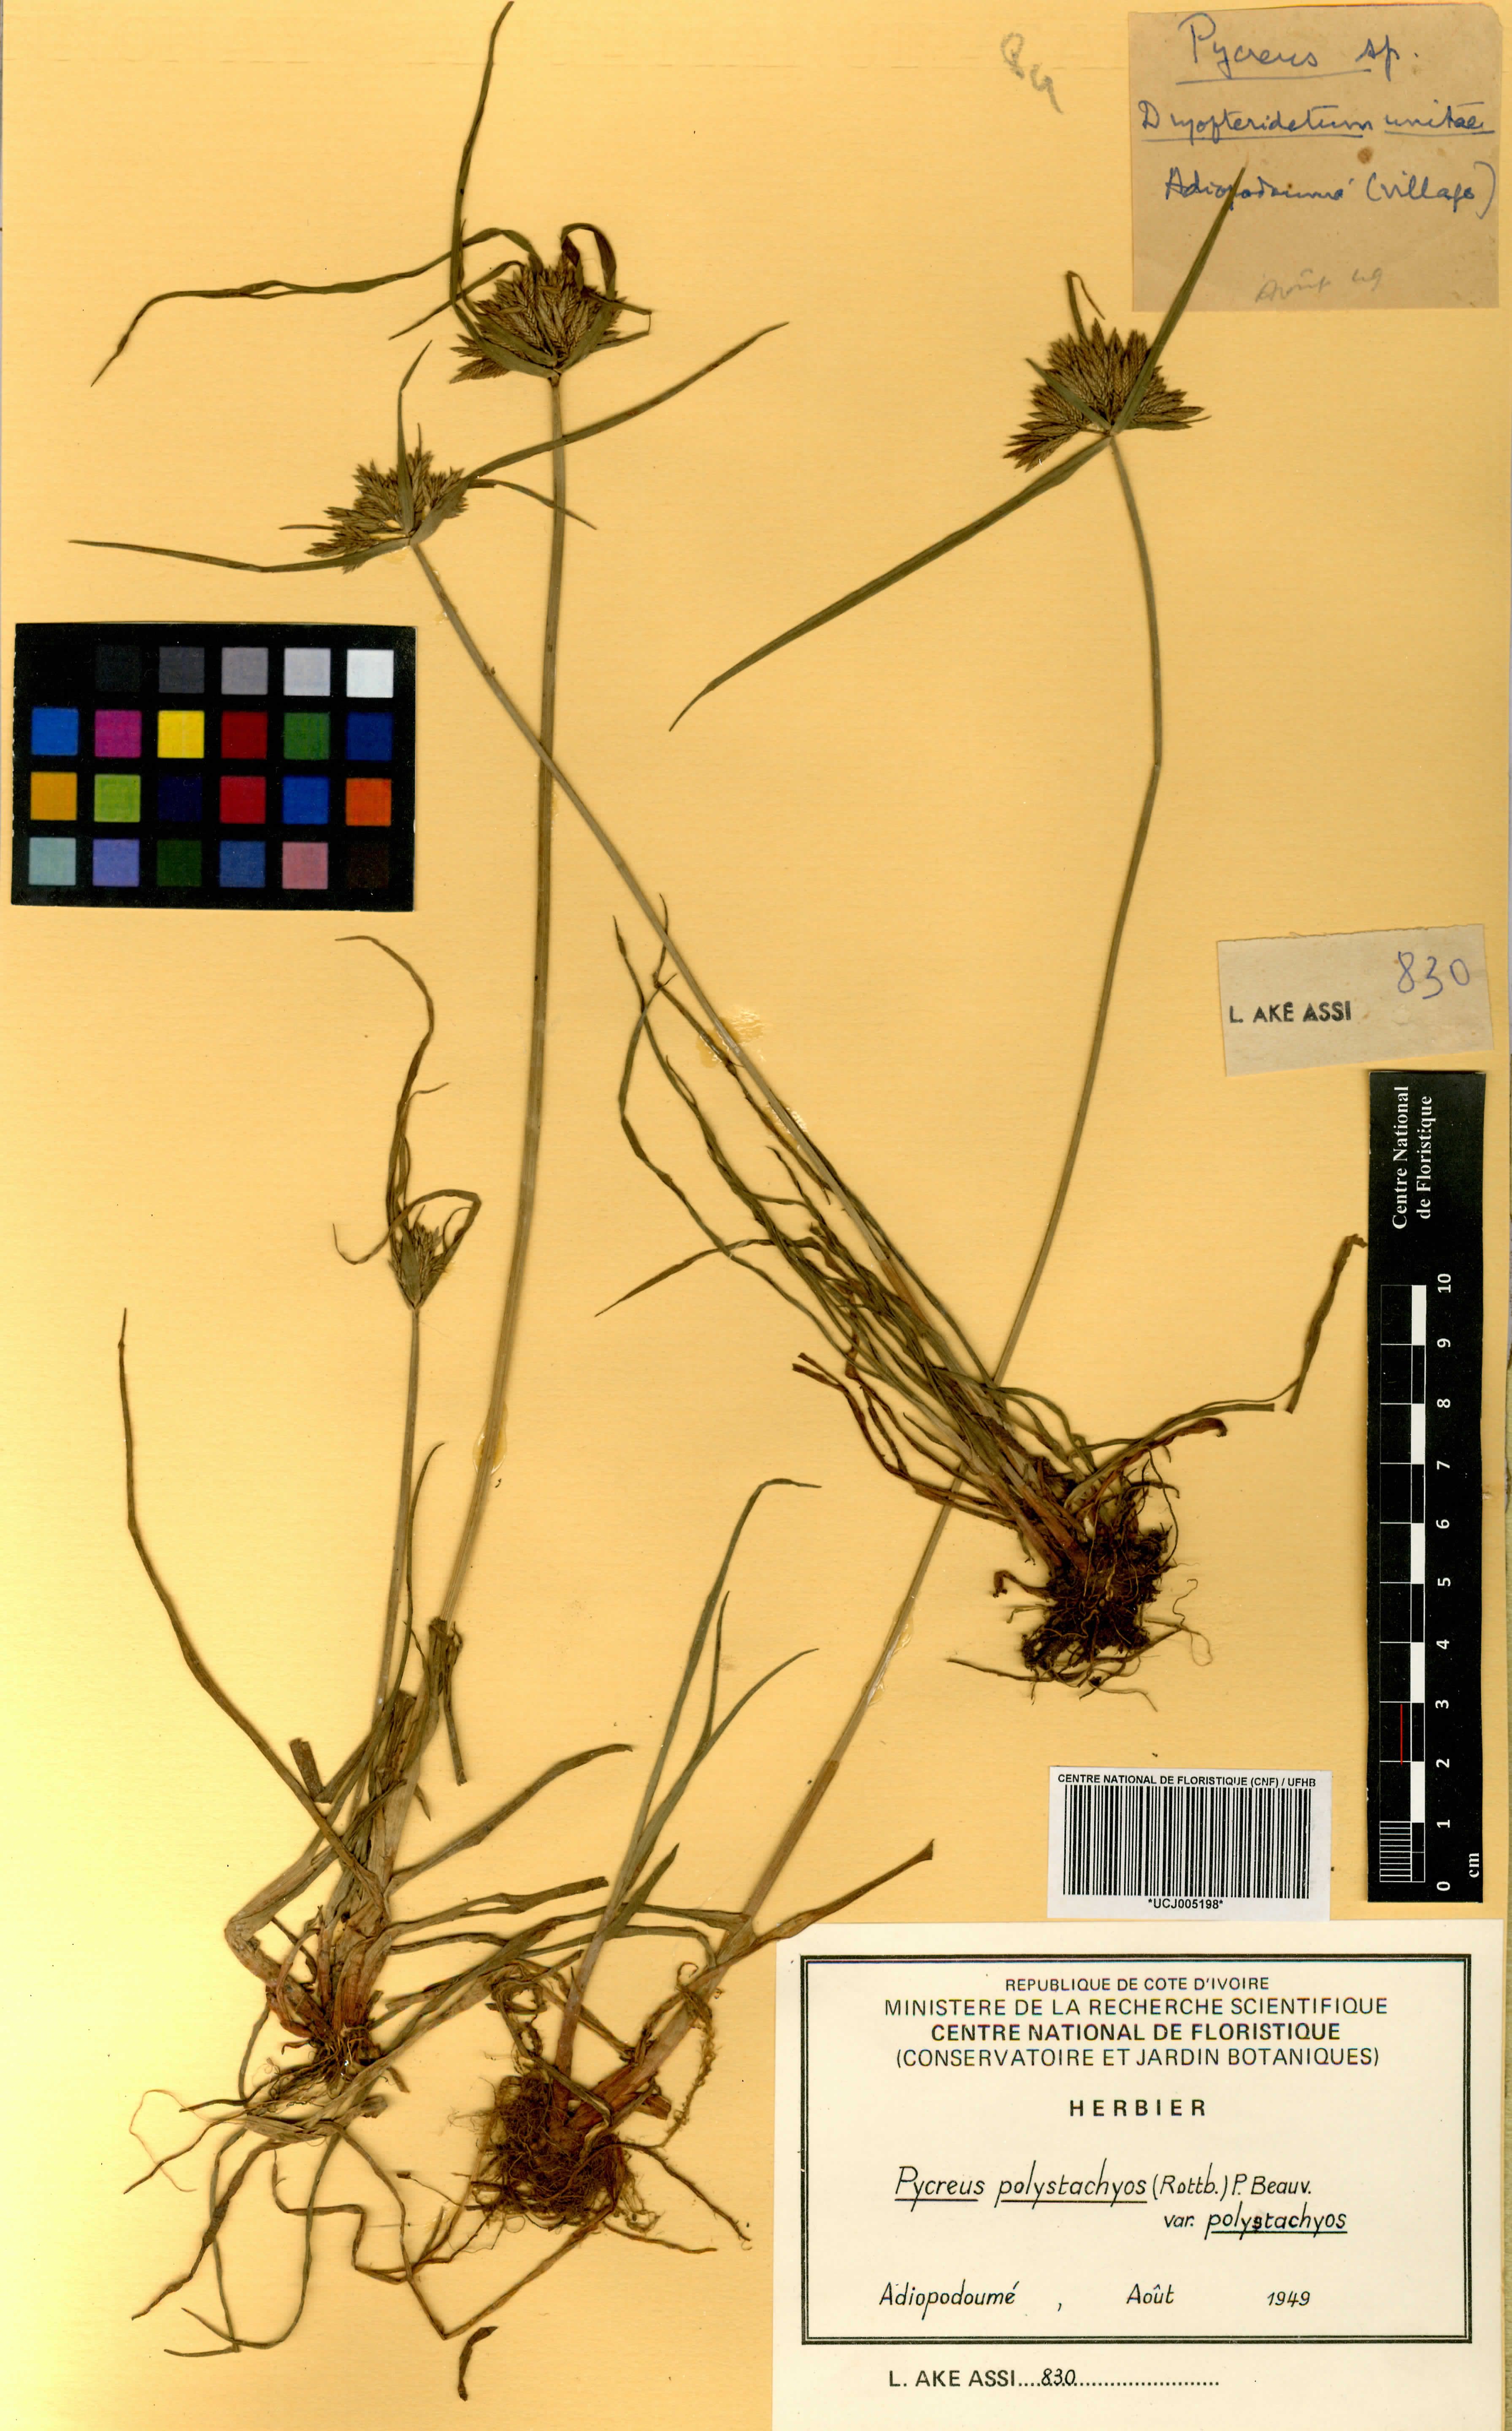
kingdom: Plantae
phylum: Tracheophyta
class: Liliopsida
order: Poales
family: Cyperaceae
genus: Cyperus
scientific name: Cyperus polystachyos
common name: Bunchy flat sedge
